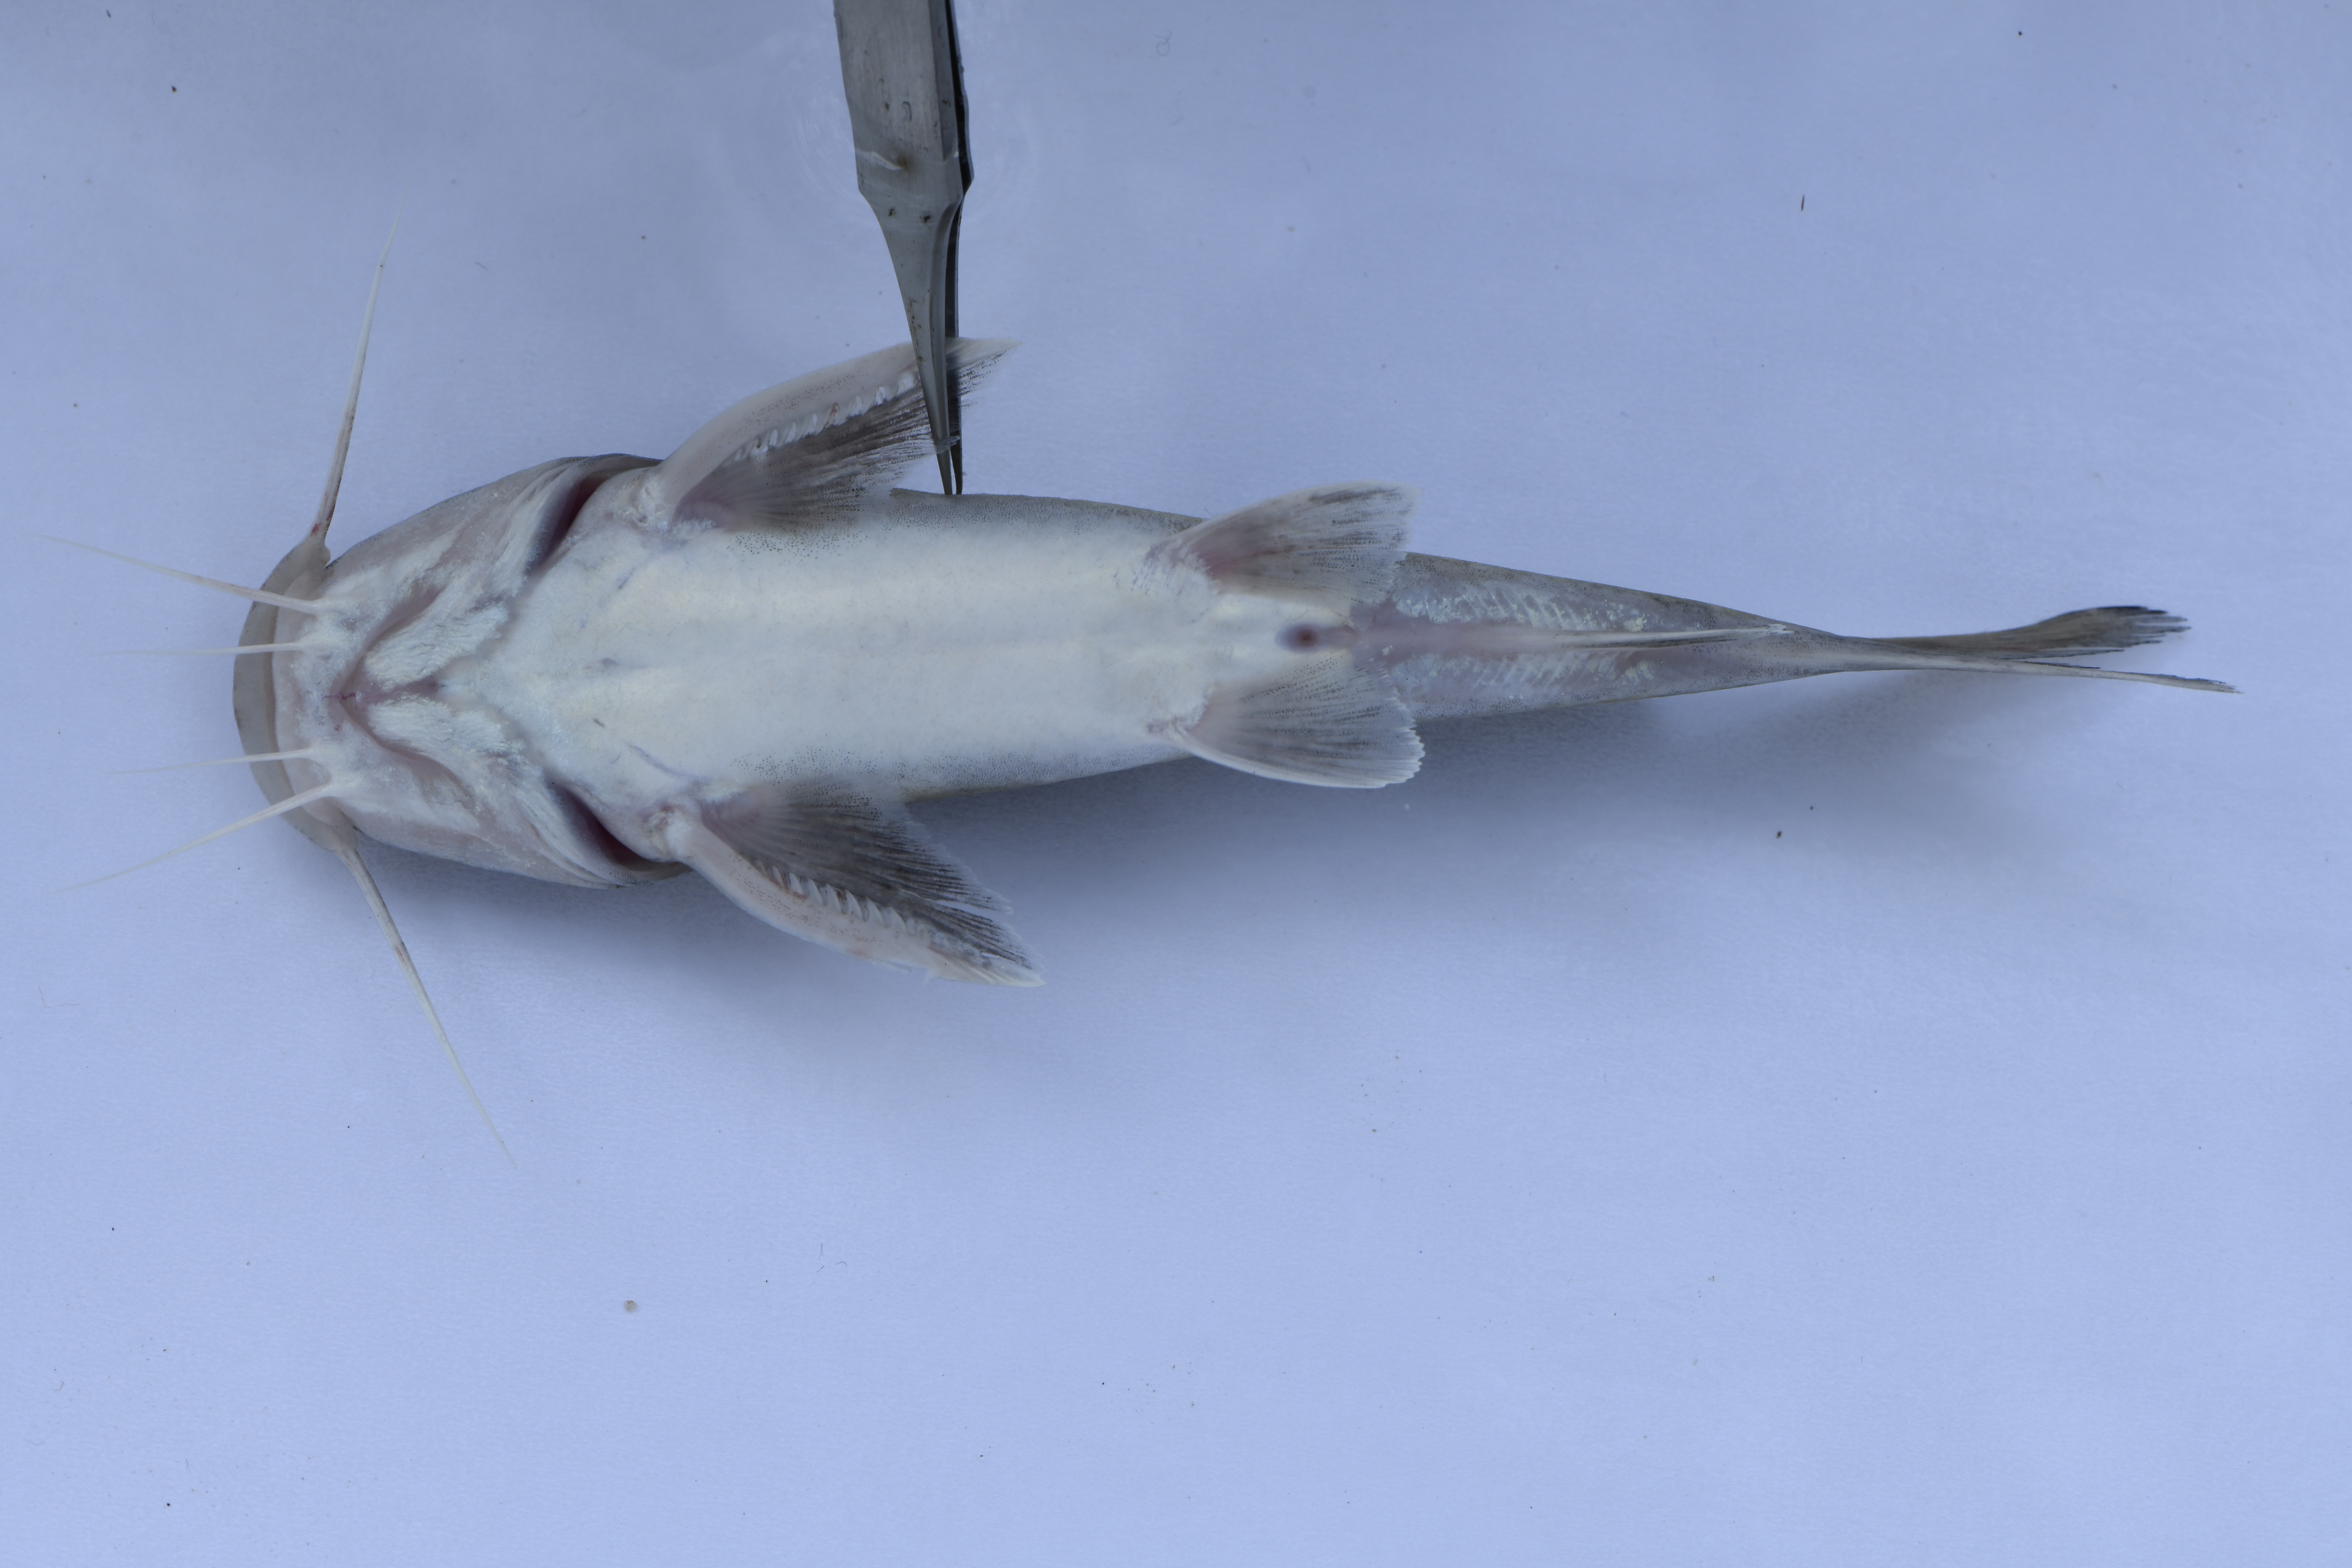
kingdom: Animalia
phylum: Chordata
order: Siluriformes
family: Claroteidae
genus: Chrysichthys
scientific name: Chrysichthys brachynema
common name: Kibonde
